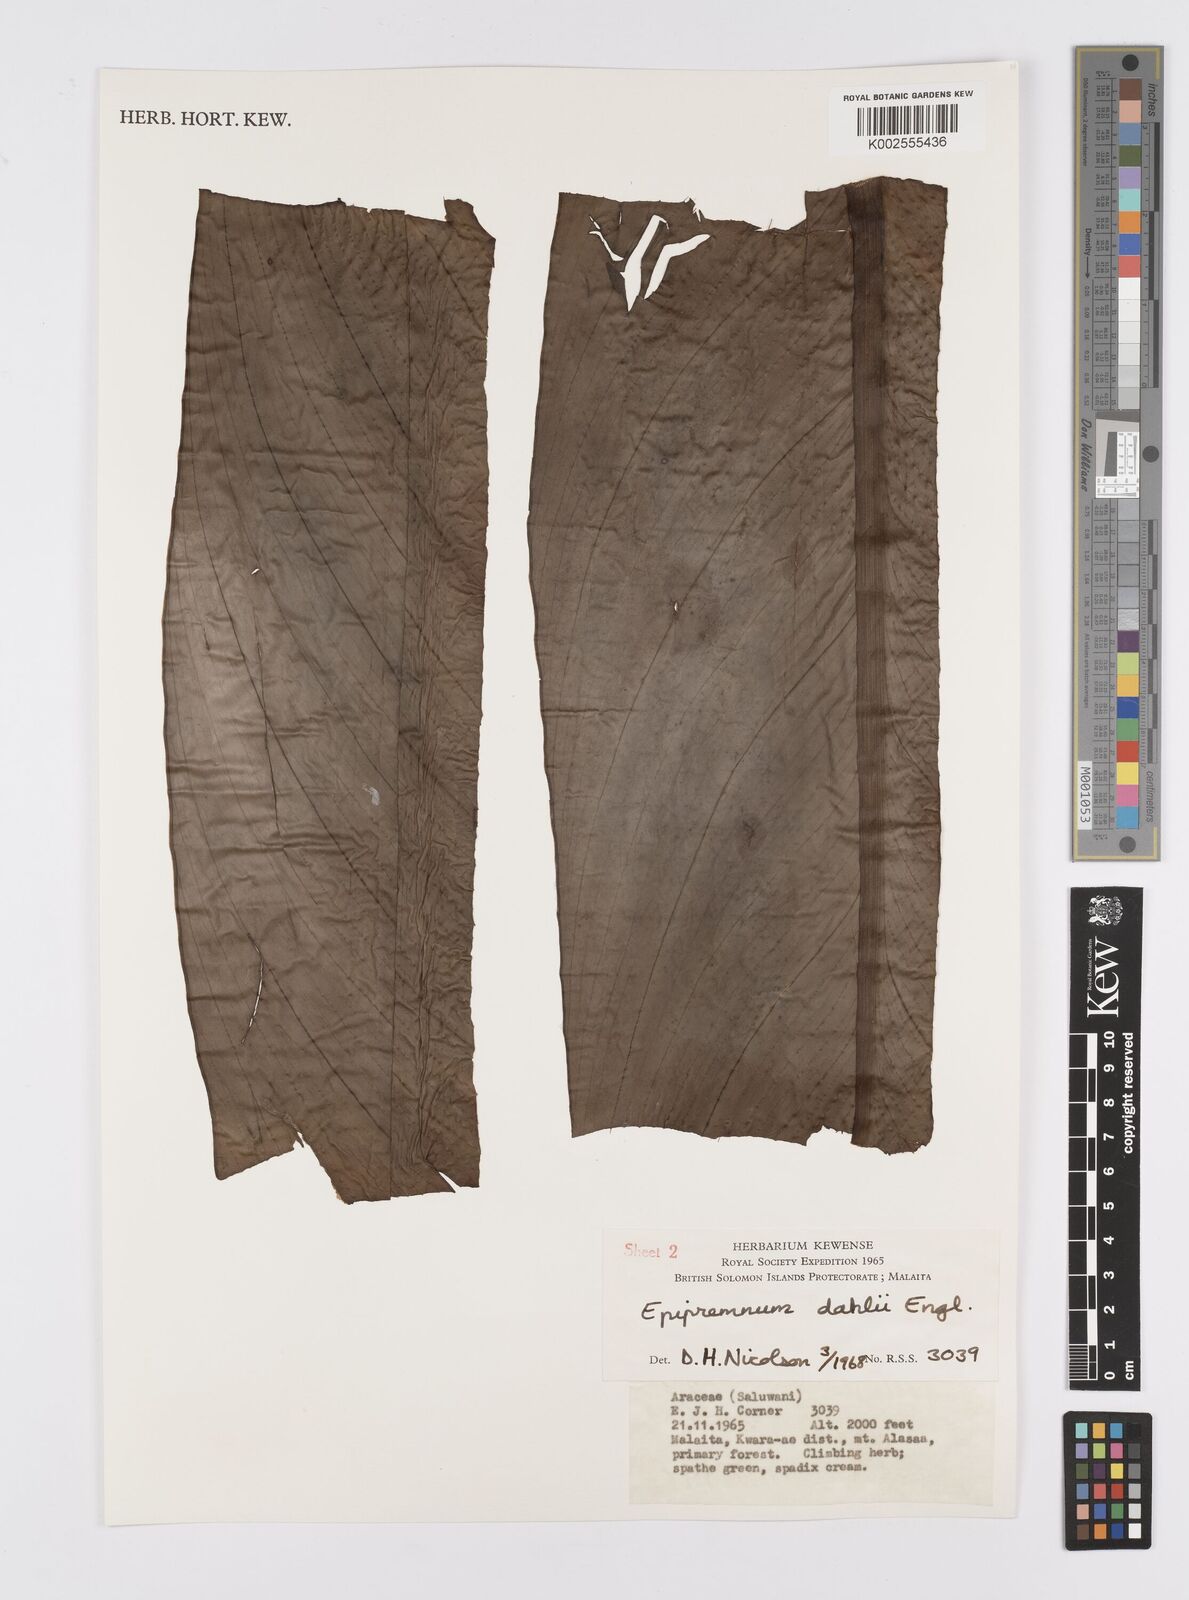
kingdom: Plantae
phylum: Tracheophyta
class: Liliopsida
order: Alismatales
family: Araceae
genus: Epipremnum
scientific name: Epipremnum dahlii
